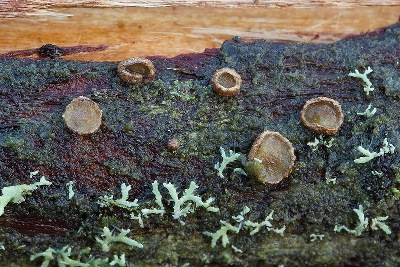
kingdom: Fungi
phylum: Ascomycota
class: Leotiomycetes
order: Helotiales
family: Cenangiaceae
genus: Velutarina
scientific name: Velutarina rufo-olivacea
